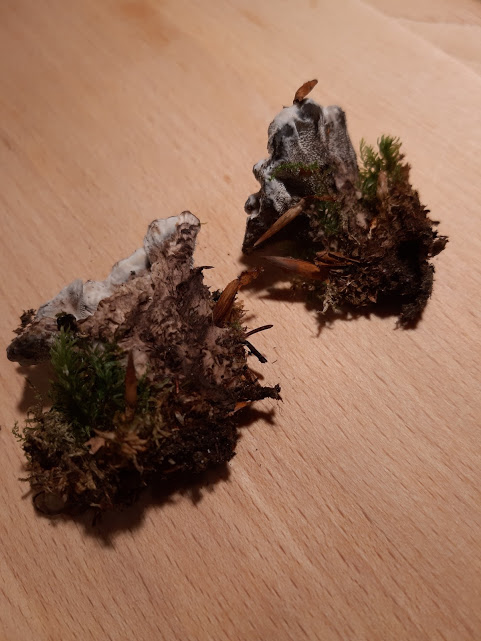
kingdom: Fungi
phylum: Basidiomycota
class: Agaricomycetes
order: Thelephorales
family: Bankeraceae
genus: Hydnellum
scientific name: Hydnellum concrescens
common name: bæltet korkpigsvamp
